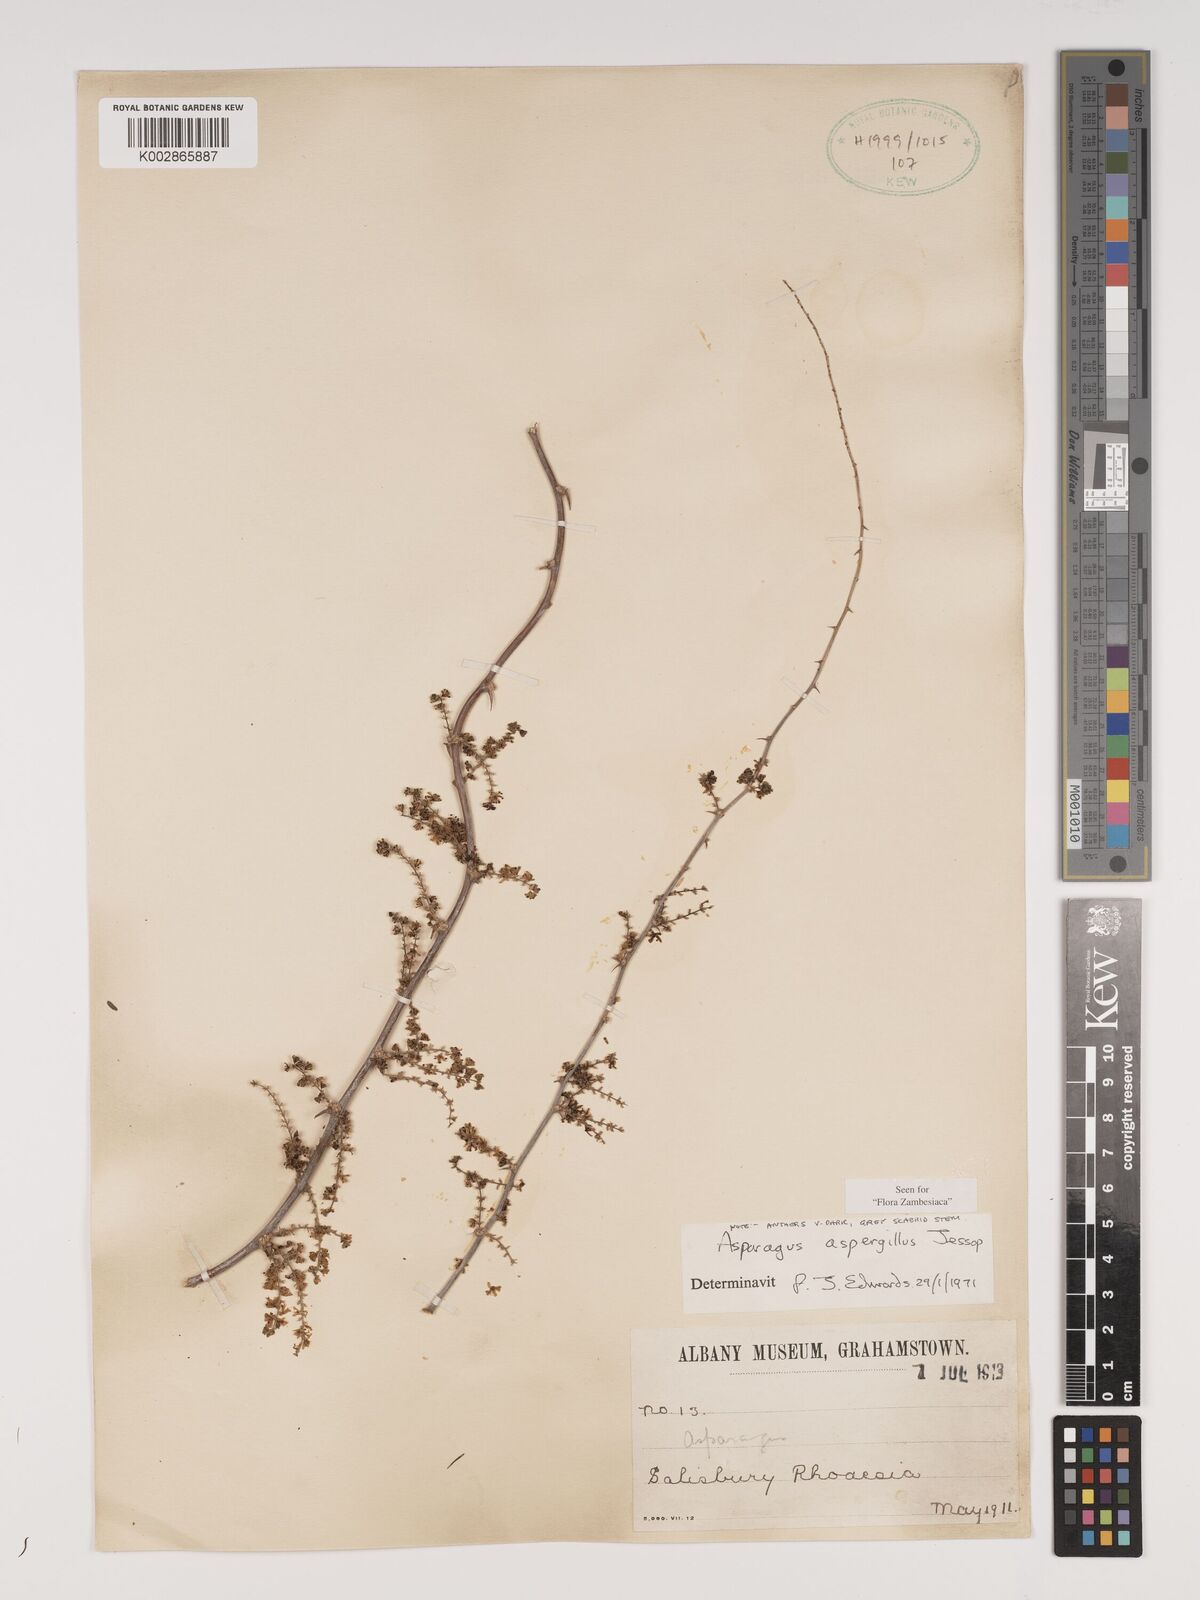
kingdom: Plantae
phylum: Tracheophyta
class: Liliopsida
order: Asparagales
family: Asparagaceae
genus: Asparagus
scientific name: Asparagus aspergillus
